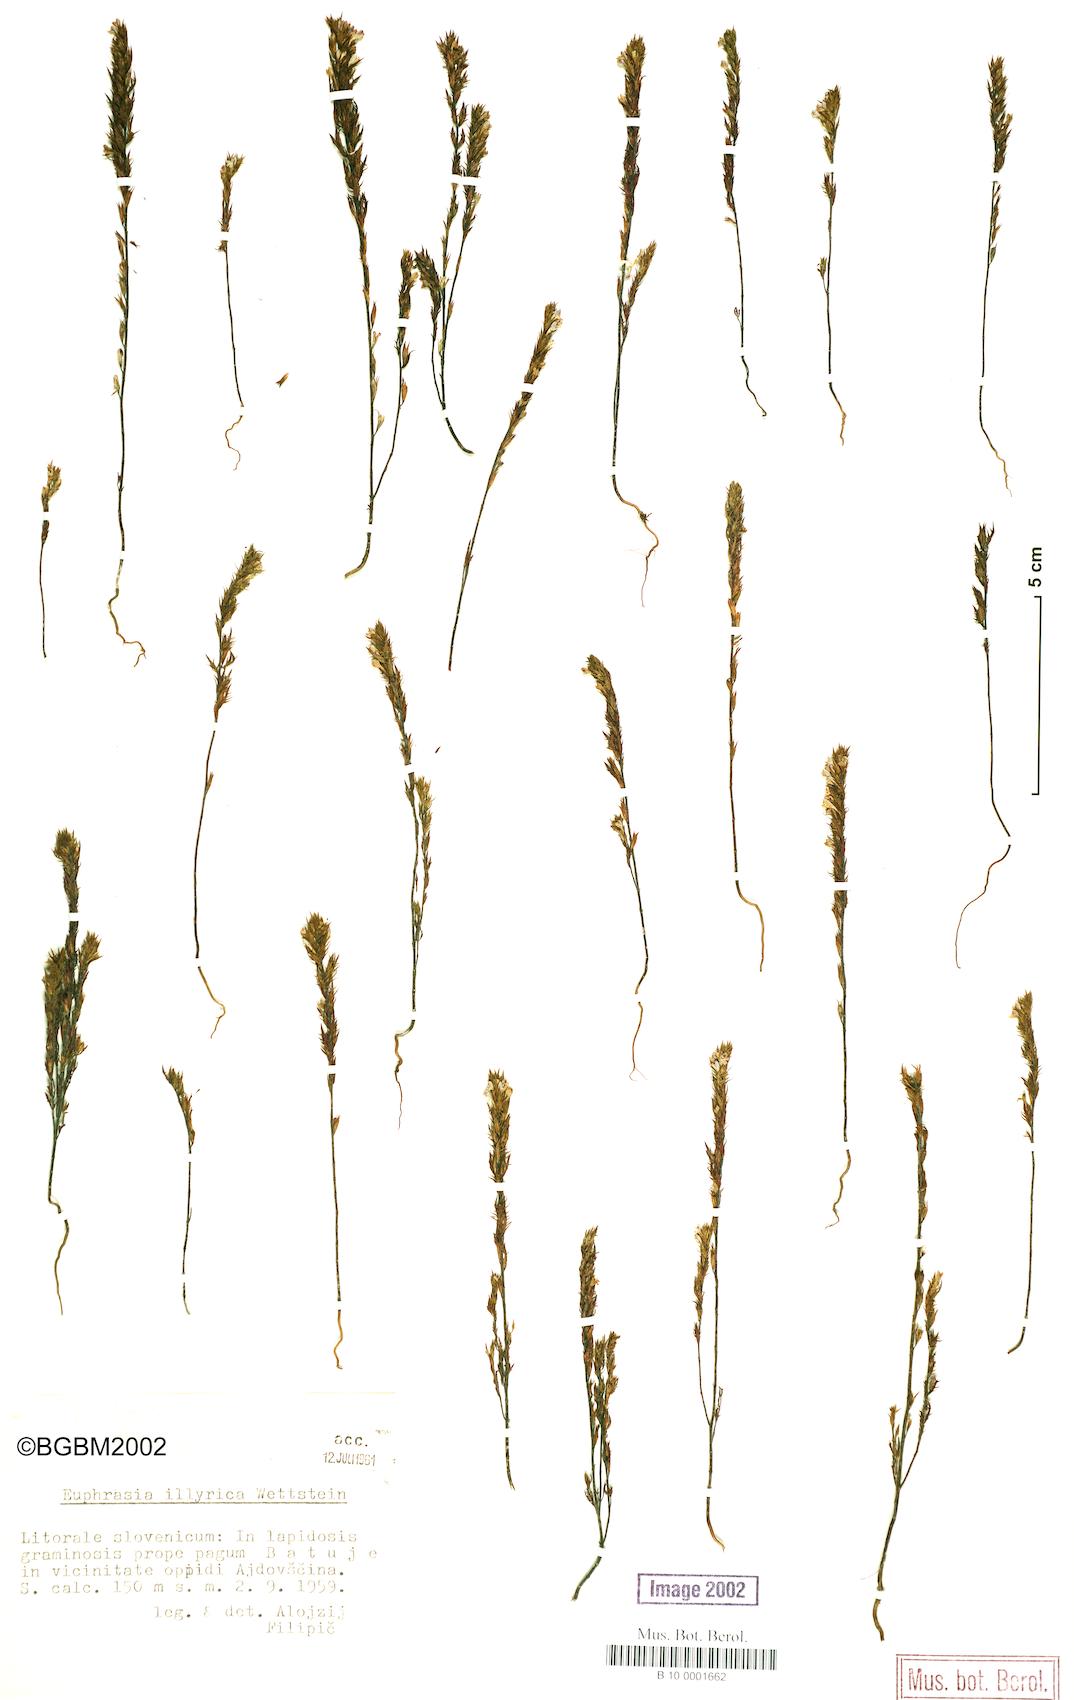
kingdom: Plantae
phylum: Tracheophyta
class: Magnoliopsida
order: Lamiales
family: Orobanchaceae
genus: Euphrasia
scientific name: Euphrasia illyrica
